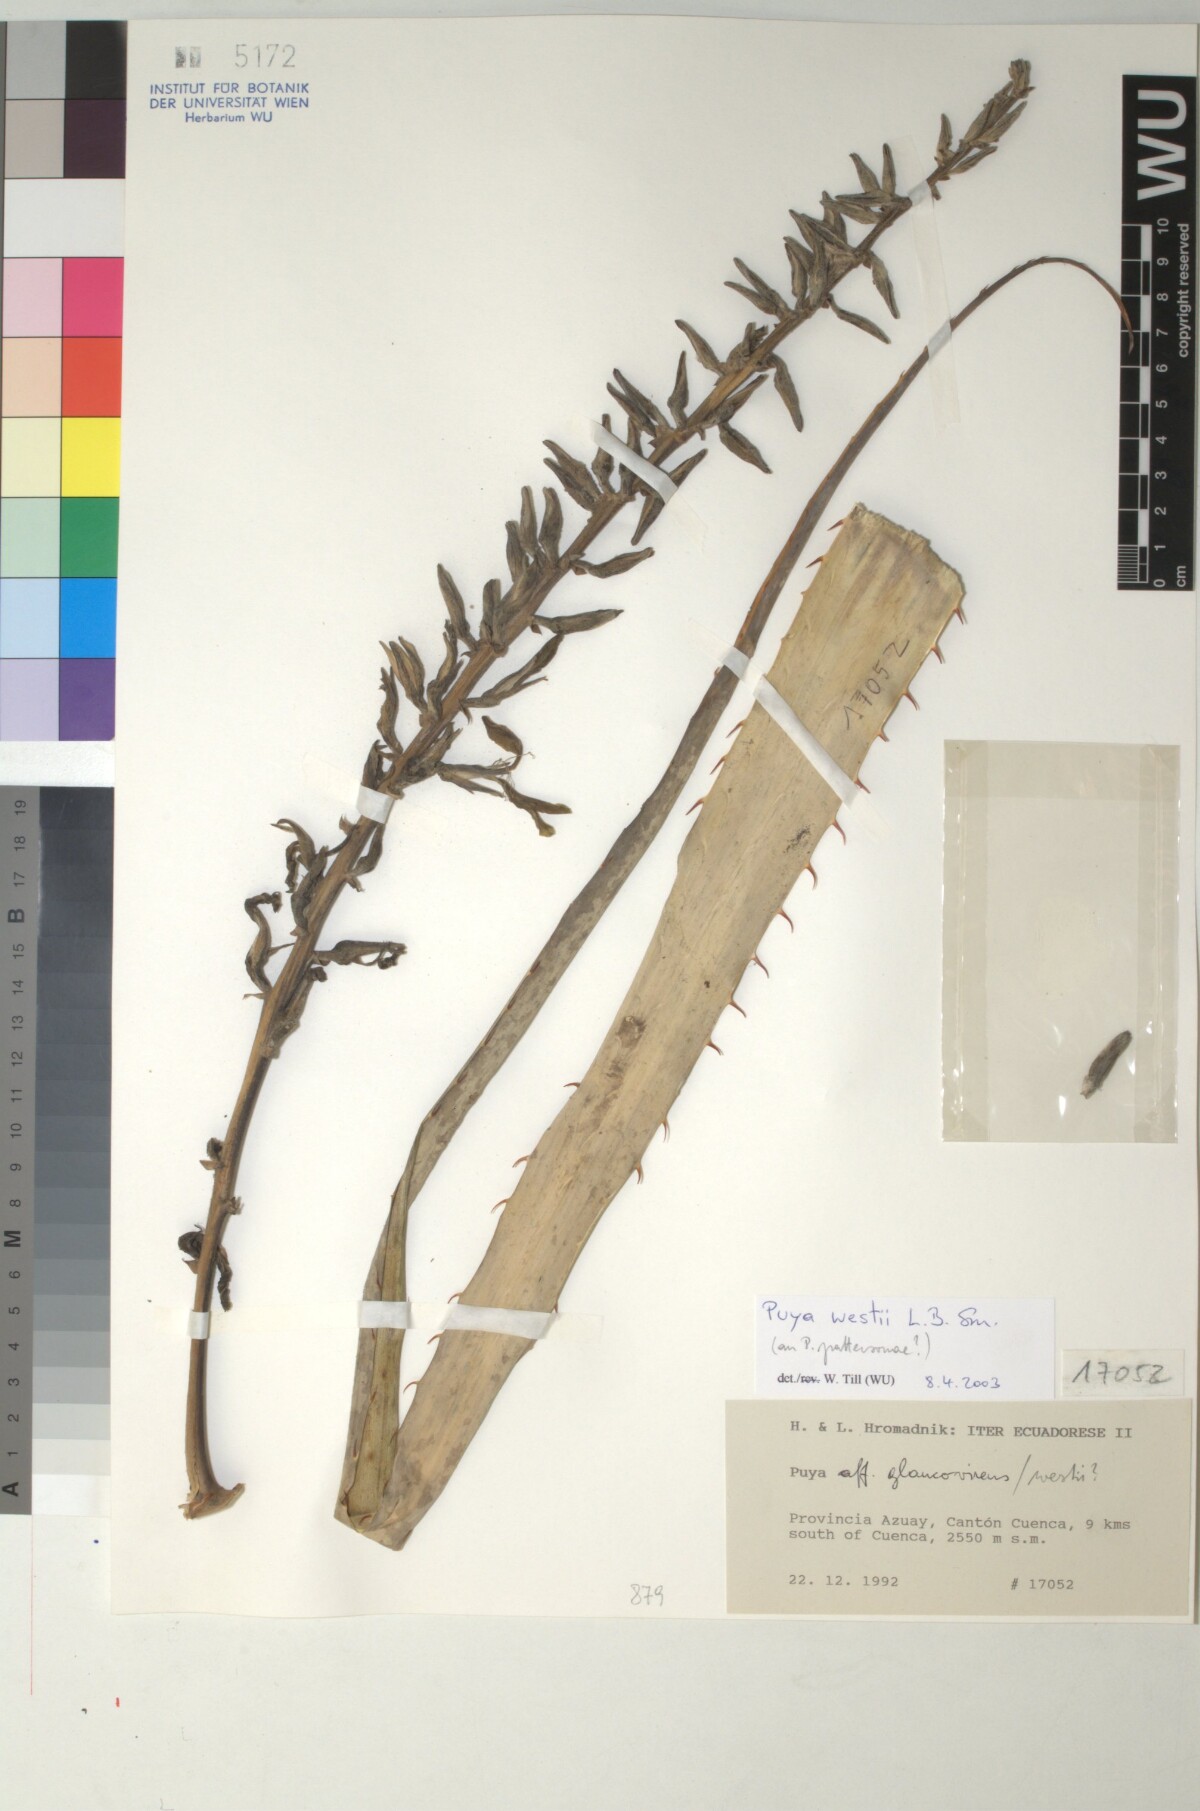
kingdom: Plantae
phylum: Tracheophyta
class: Liliopsida
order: Poales
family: Bromeliaceae
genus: Puya
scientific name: Puya westii
